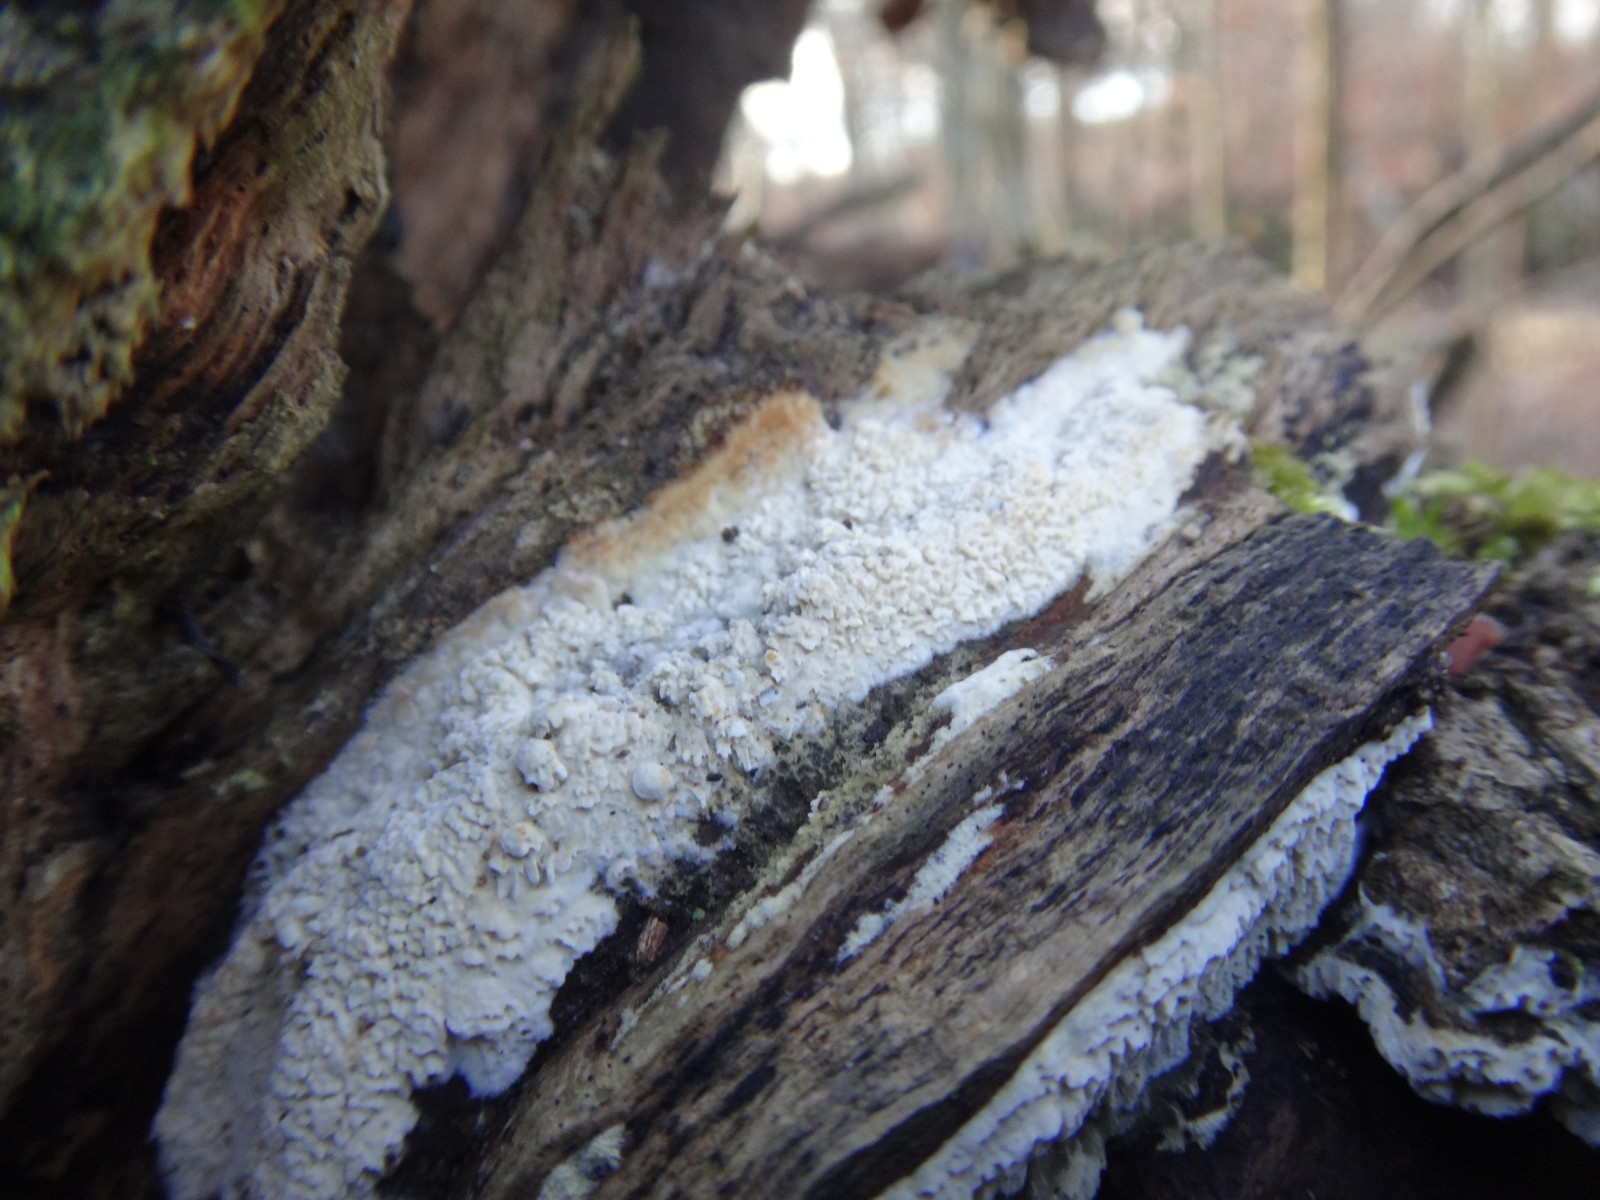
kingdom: Fungi
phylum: Basidiomycota
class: Agaricomycetes
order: Hymenochaetales
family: Schizoporaceae
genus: Schizopora
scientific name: Schizopora paradoxa
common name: hvid tandsvamp
